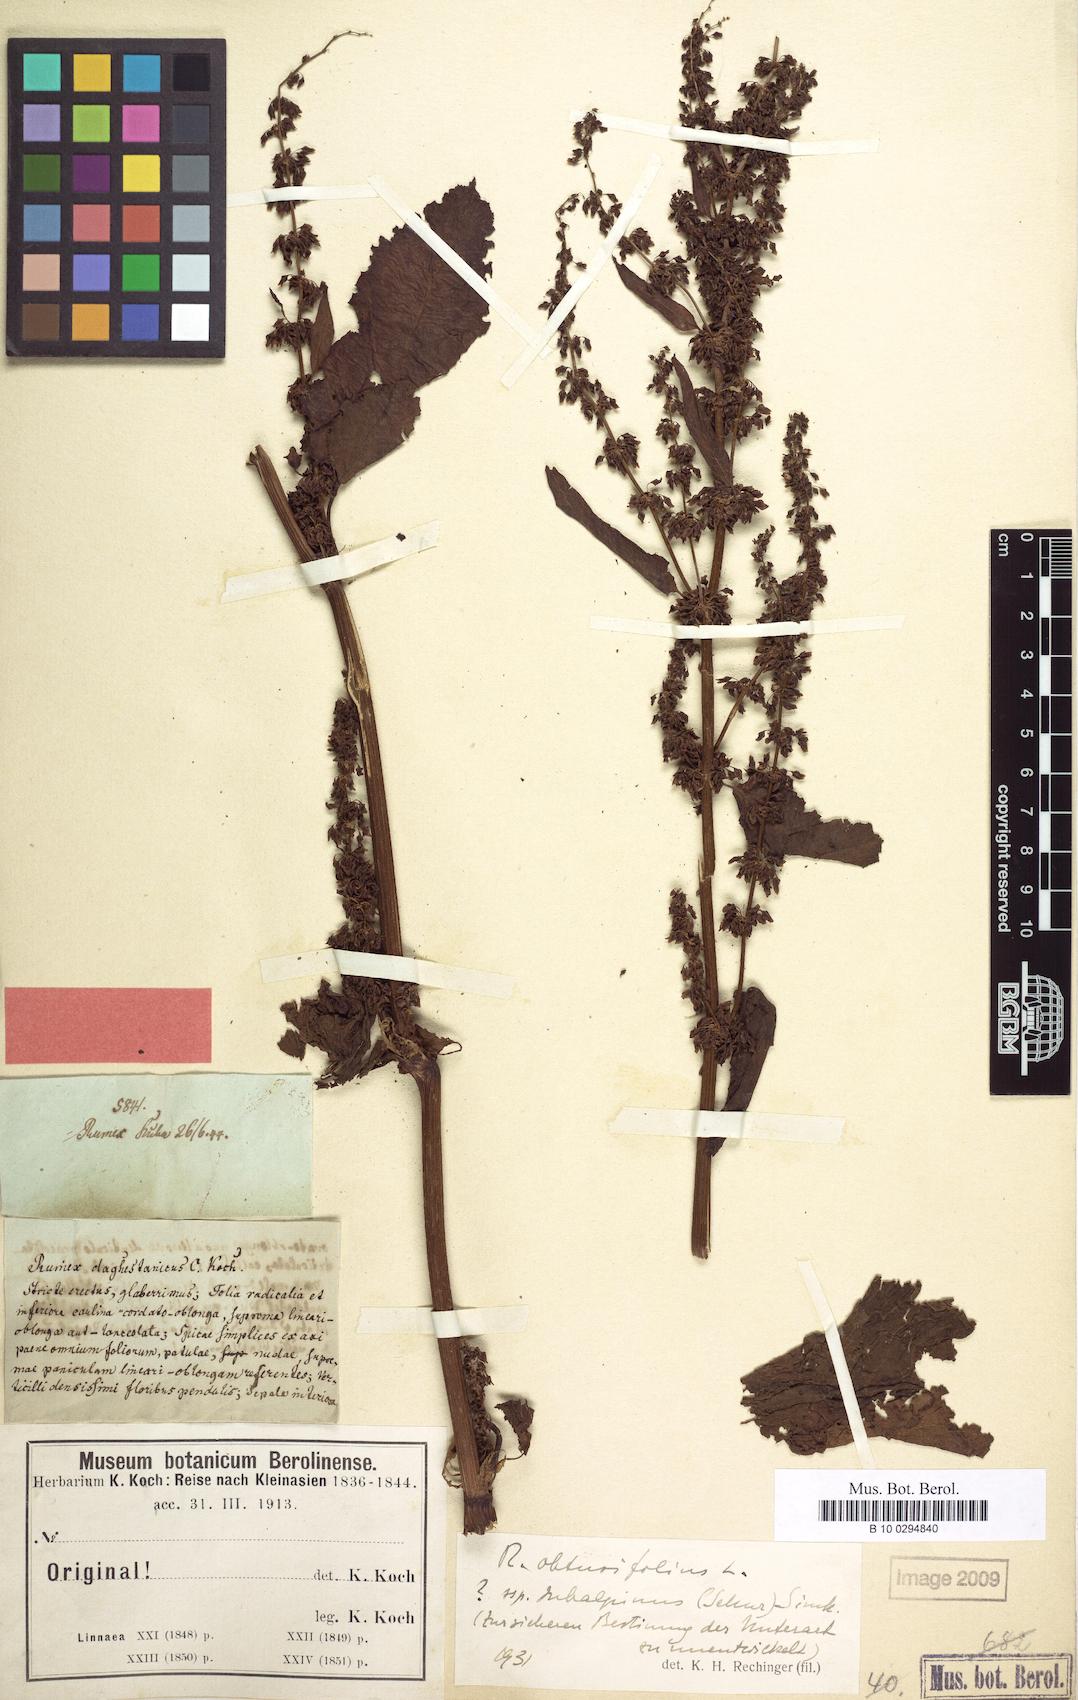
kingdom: Plantae
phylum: Tracheophyta
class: Magnoliopsida
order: Caryophyllales
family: Polygonaceae
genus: Rumex
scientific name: Rumex obtusifolius
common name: Bitter dock
